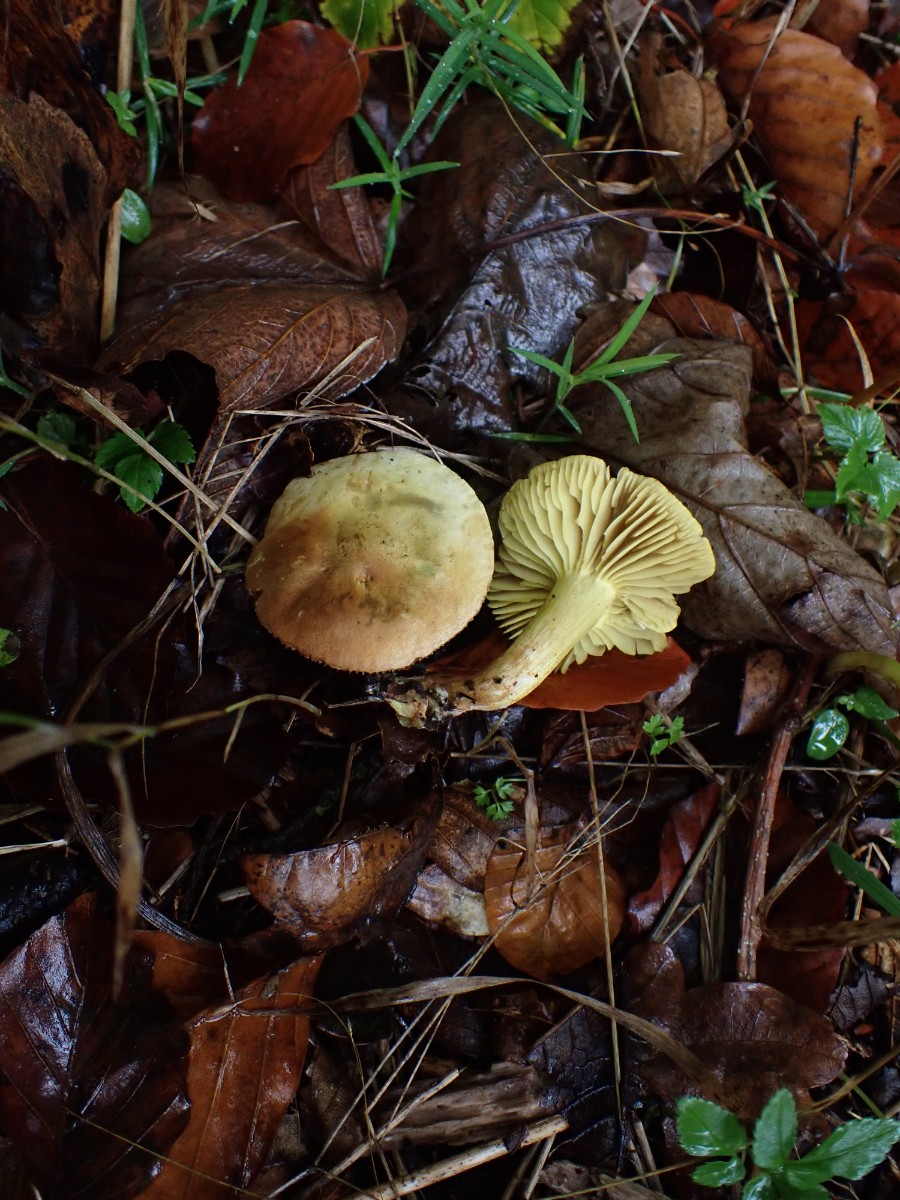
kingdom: Fungi
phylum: Basidiomycota
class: Agaricomycetes
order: Agaricales
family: Tricholomataceae
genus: Tricholoma
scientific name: Tricholoma sulphureum
